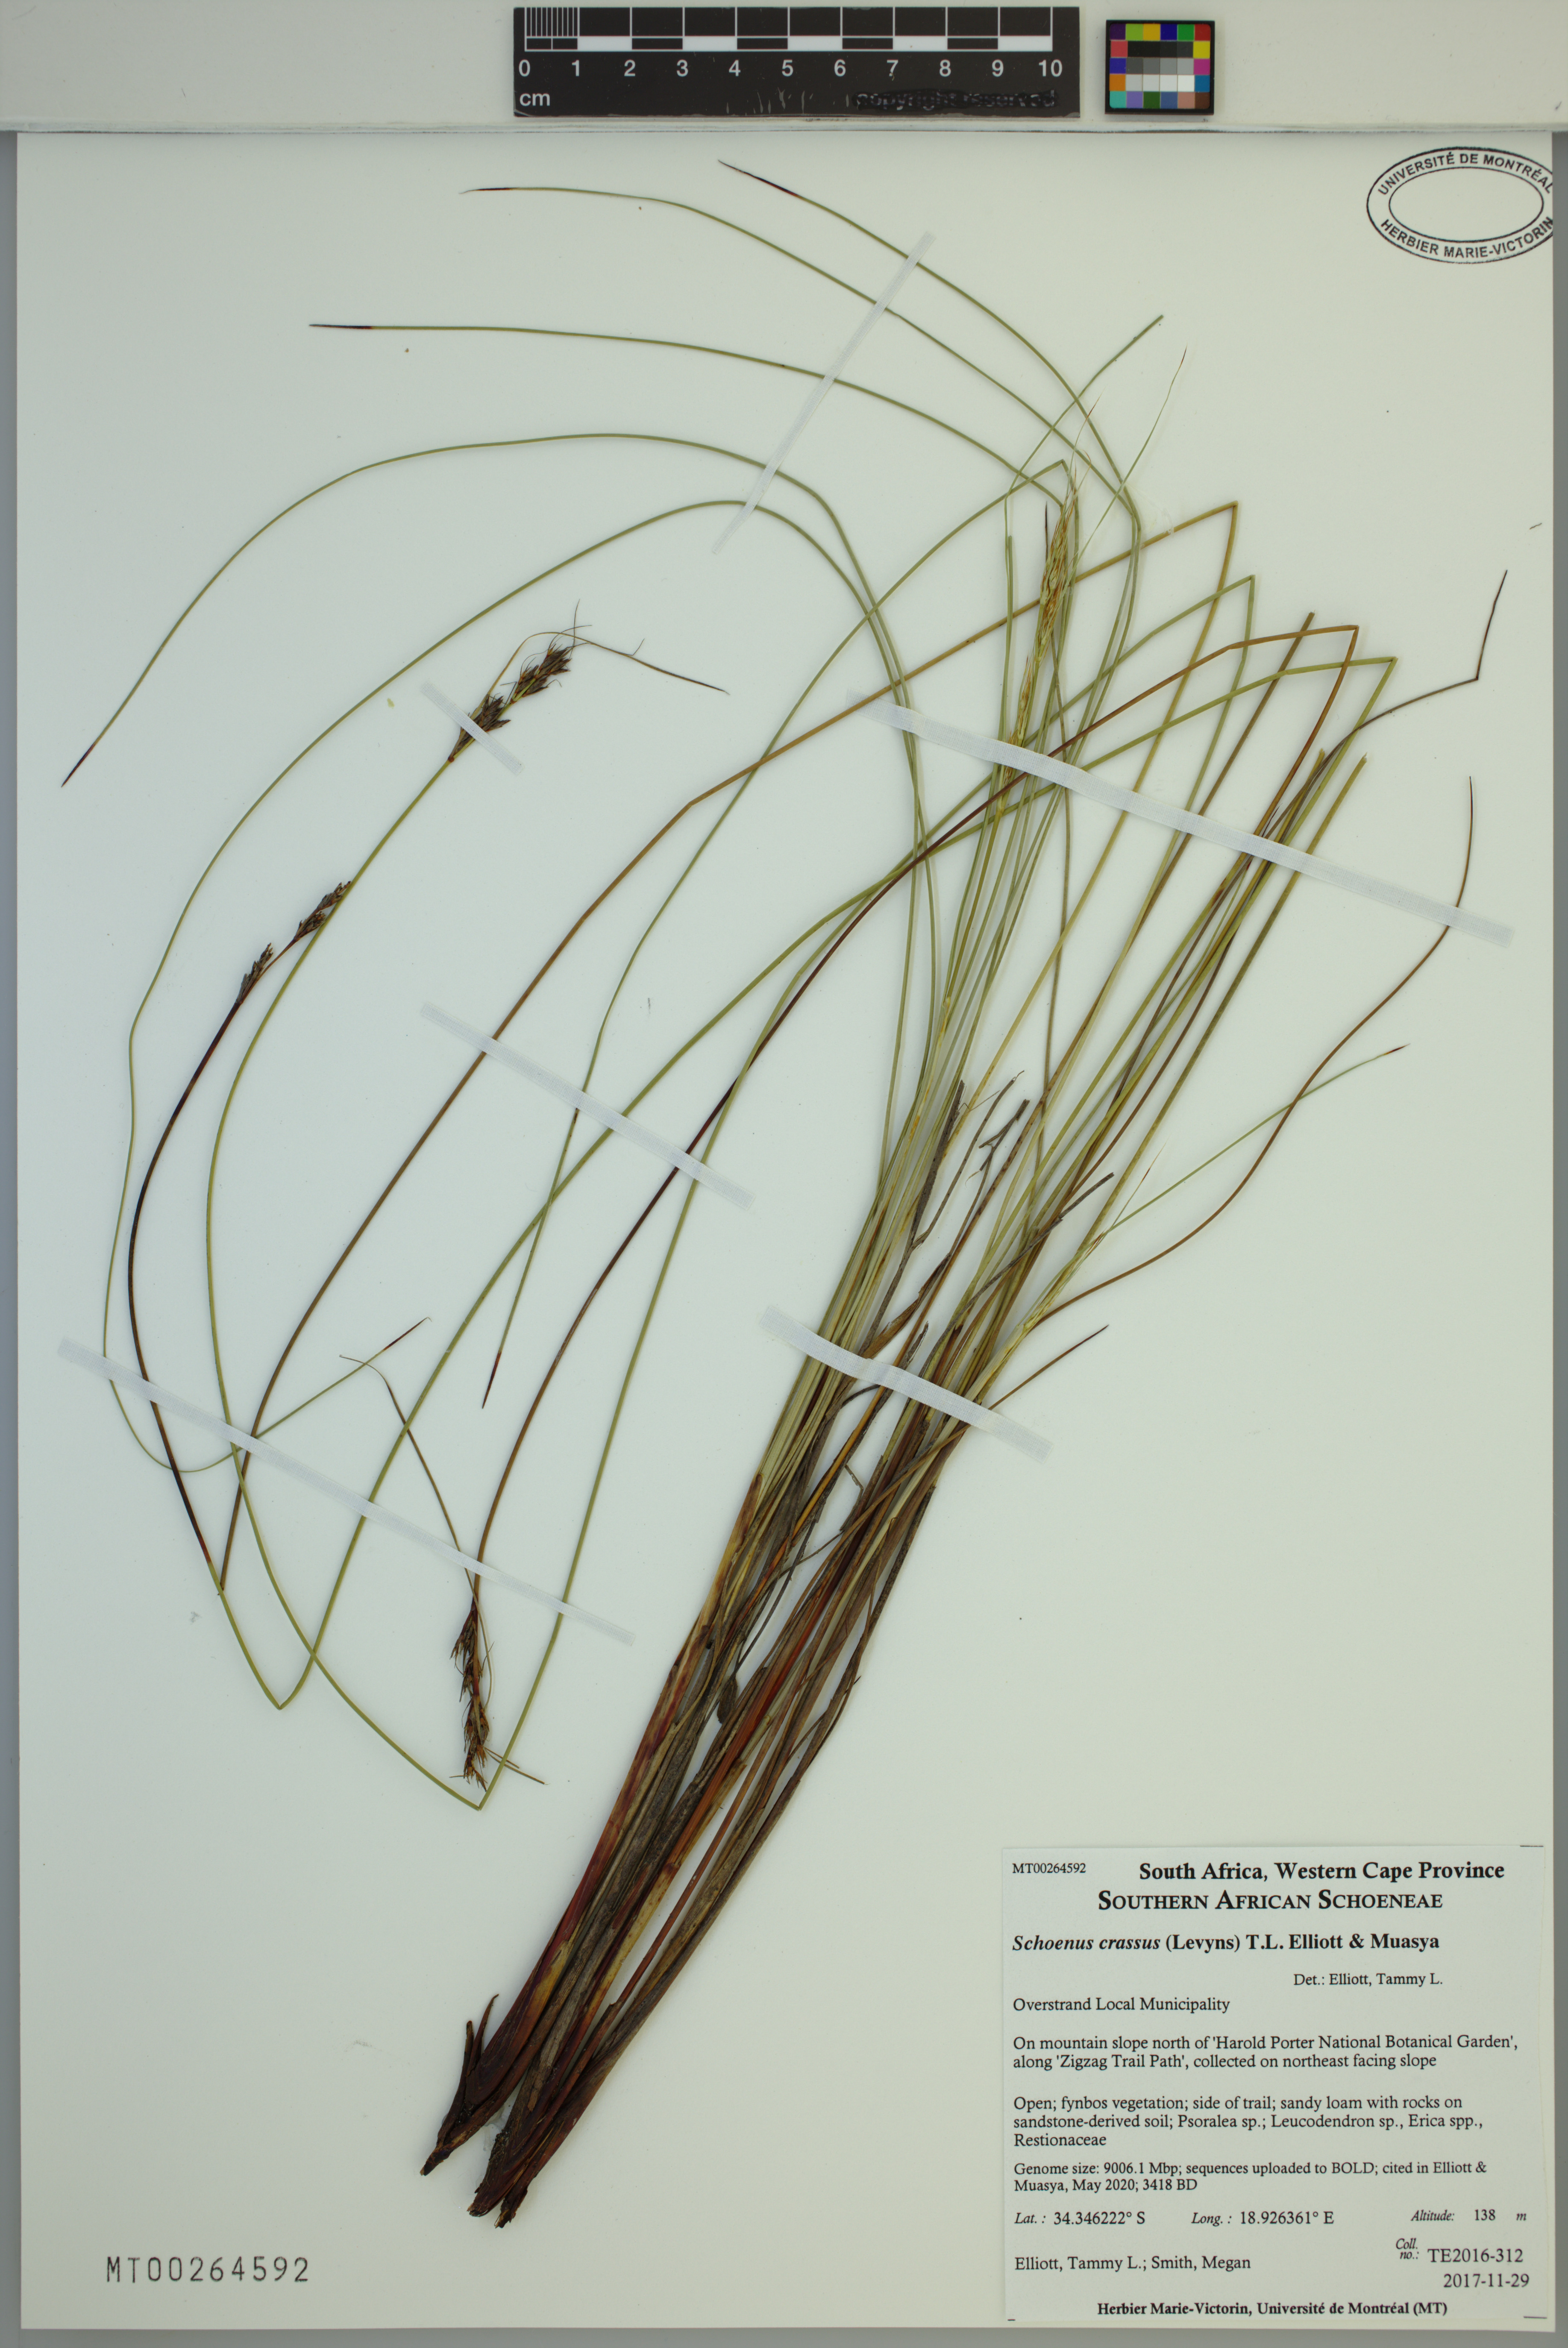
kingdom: Plantae
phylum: Tracheophyta
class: Liliopsida
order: Poales
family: Cyperaceae
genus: Schoenus
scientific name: Schoenus crassus
